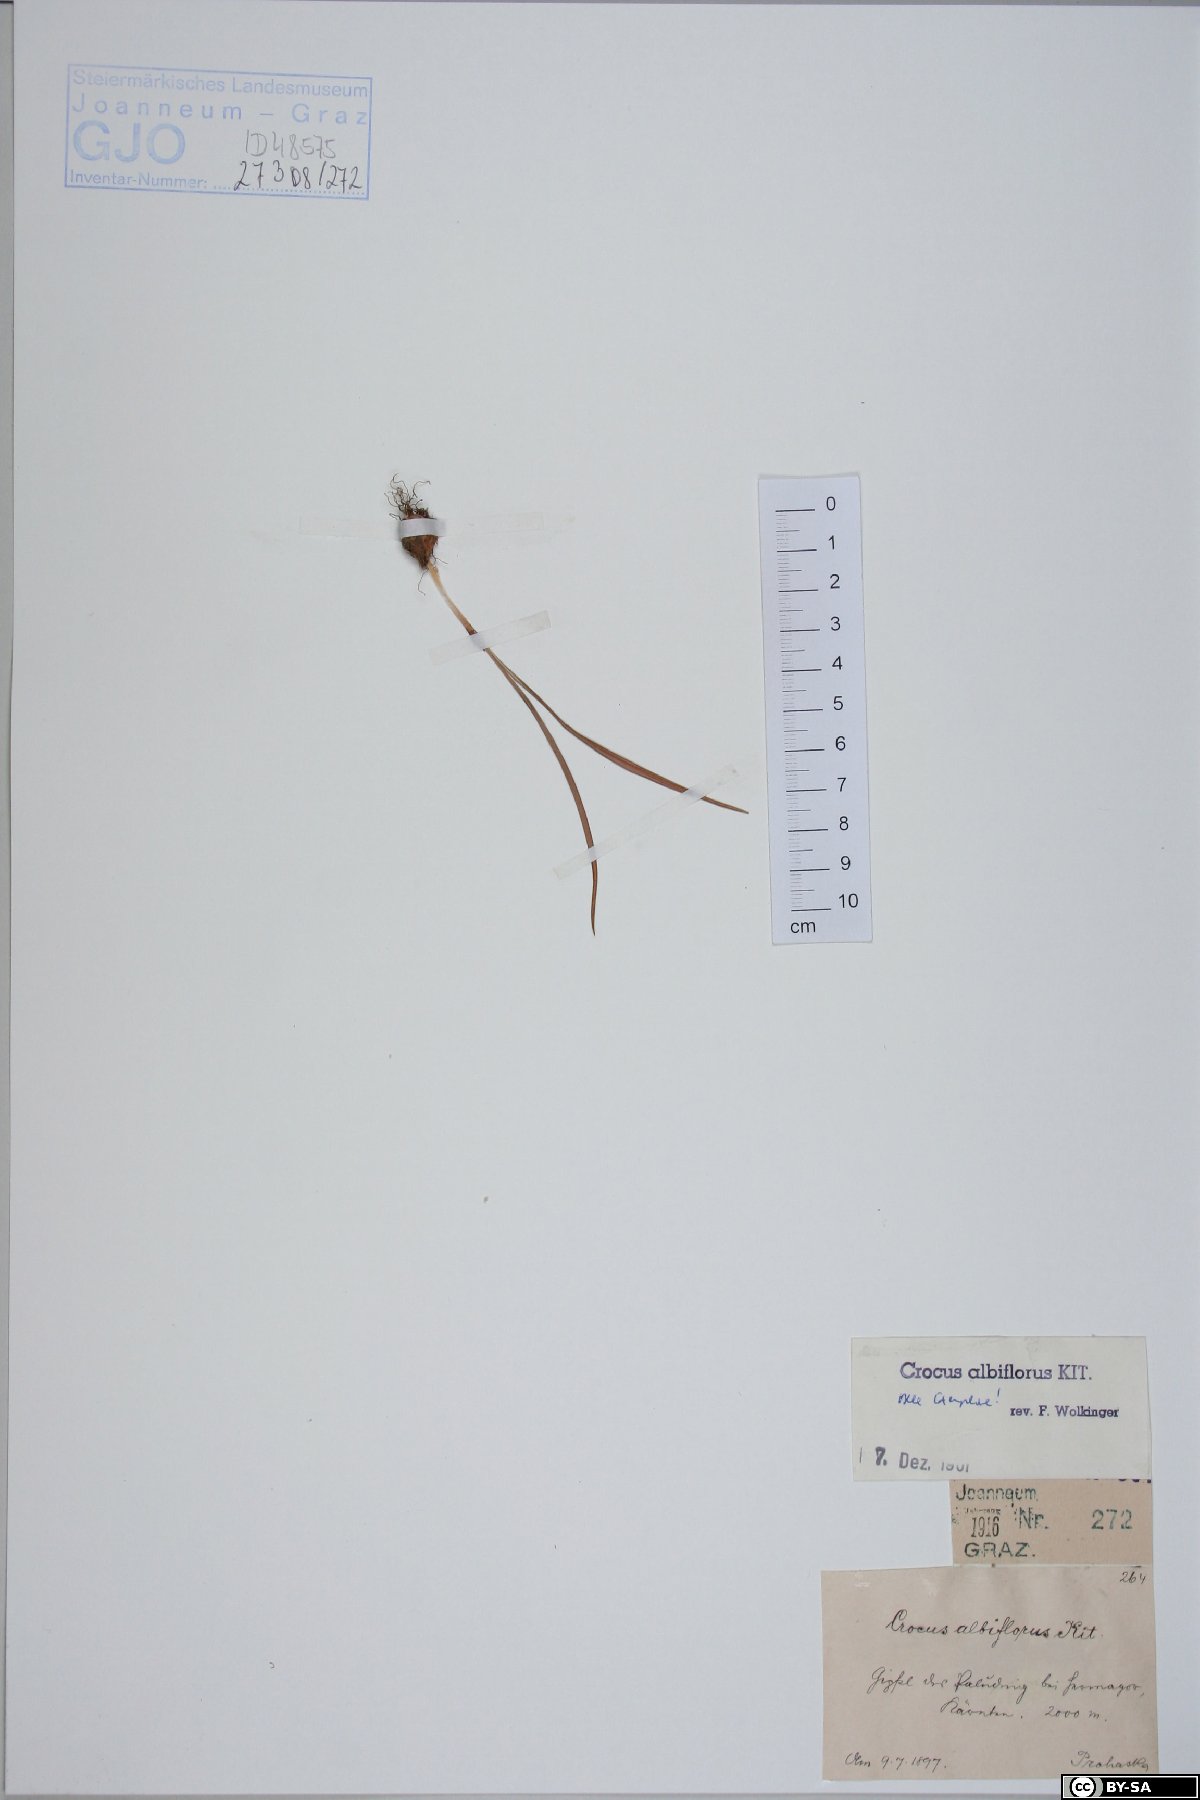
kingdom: Plantae
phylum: Tracheophyta
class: Liliopsida
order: Asparagales
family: Iridaceae
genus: Crocus
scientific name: Crocus vernus
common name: Spring crocus
